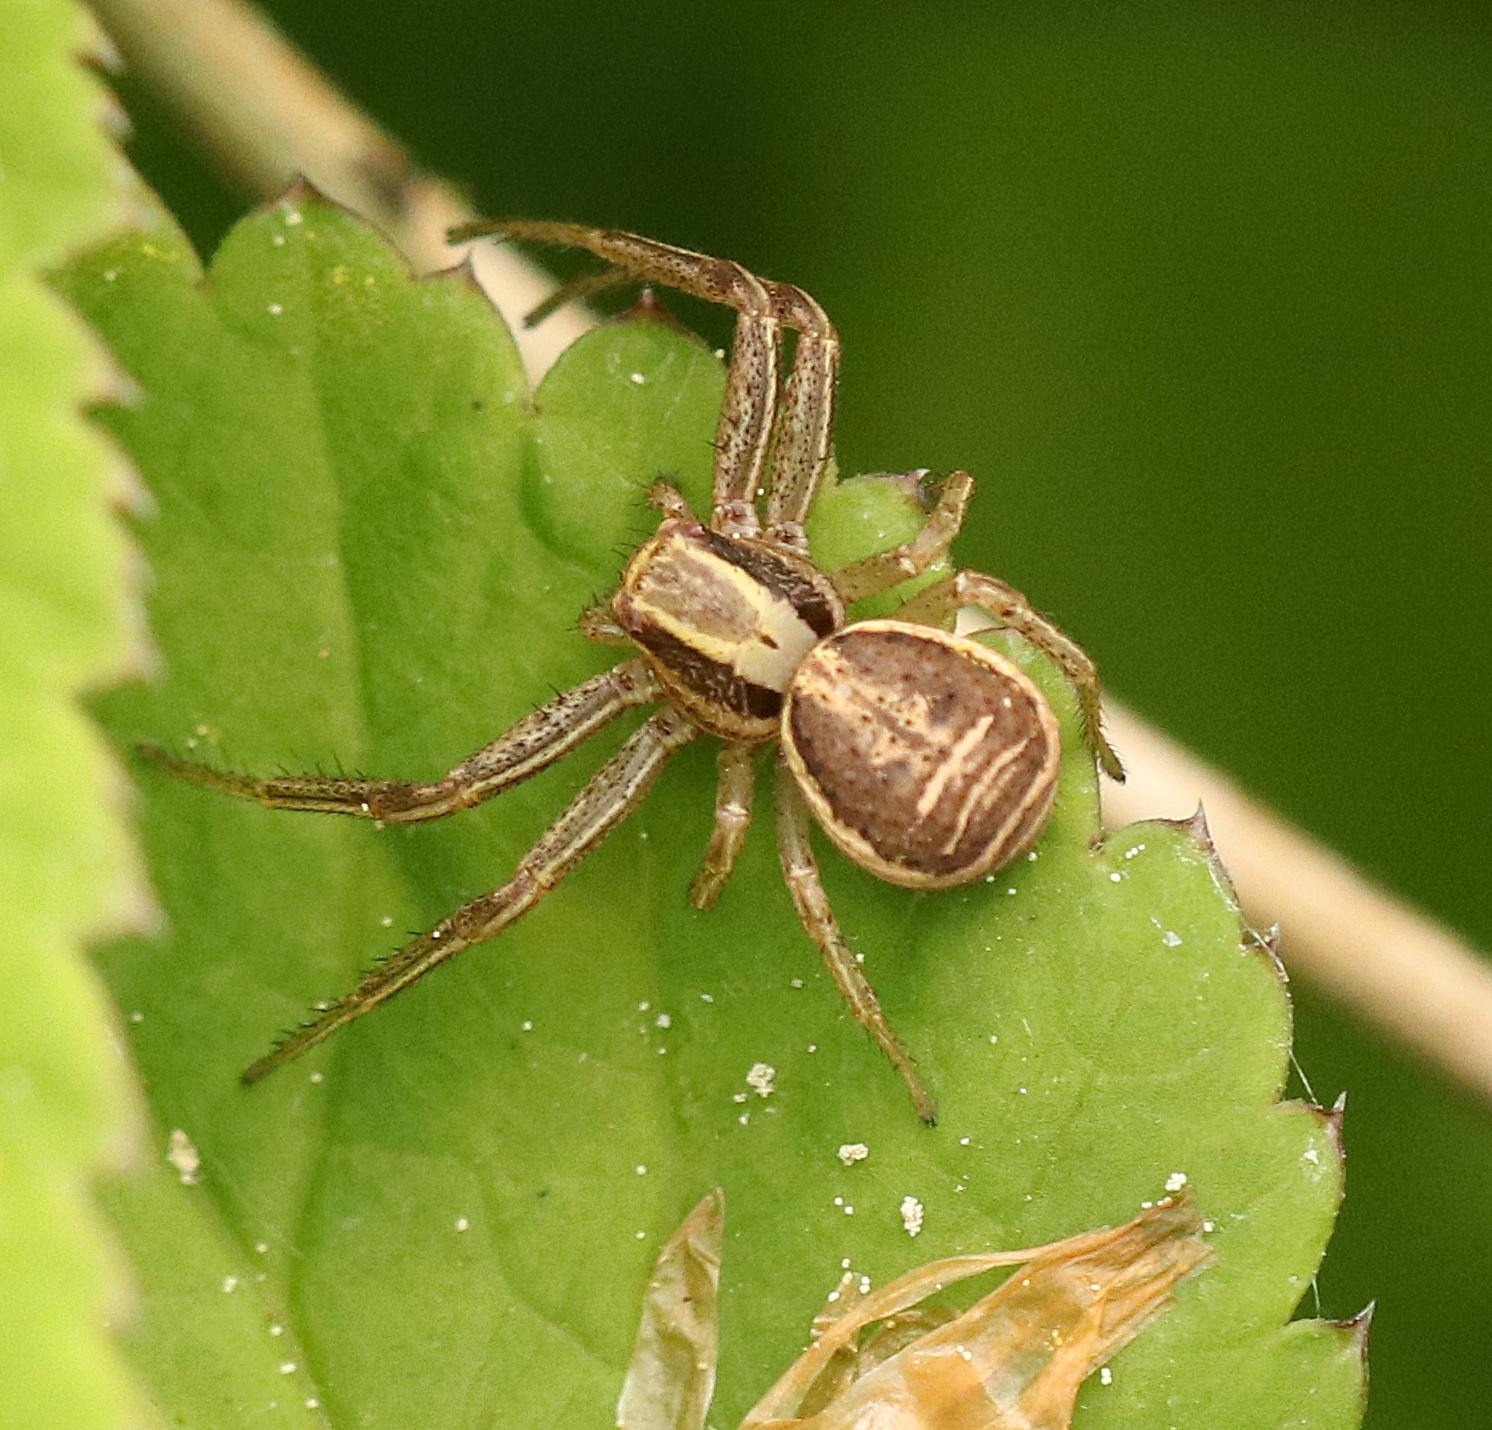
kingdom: Animalia
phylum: Arthropoda
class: Arachnida
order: Araneae
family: Thomisidae
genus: Xysticus
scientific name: Xysticus ulmi
